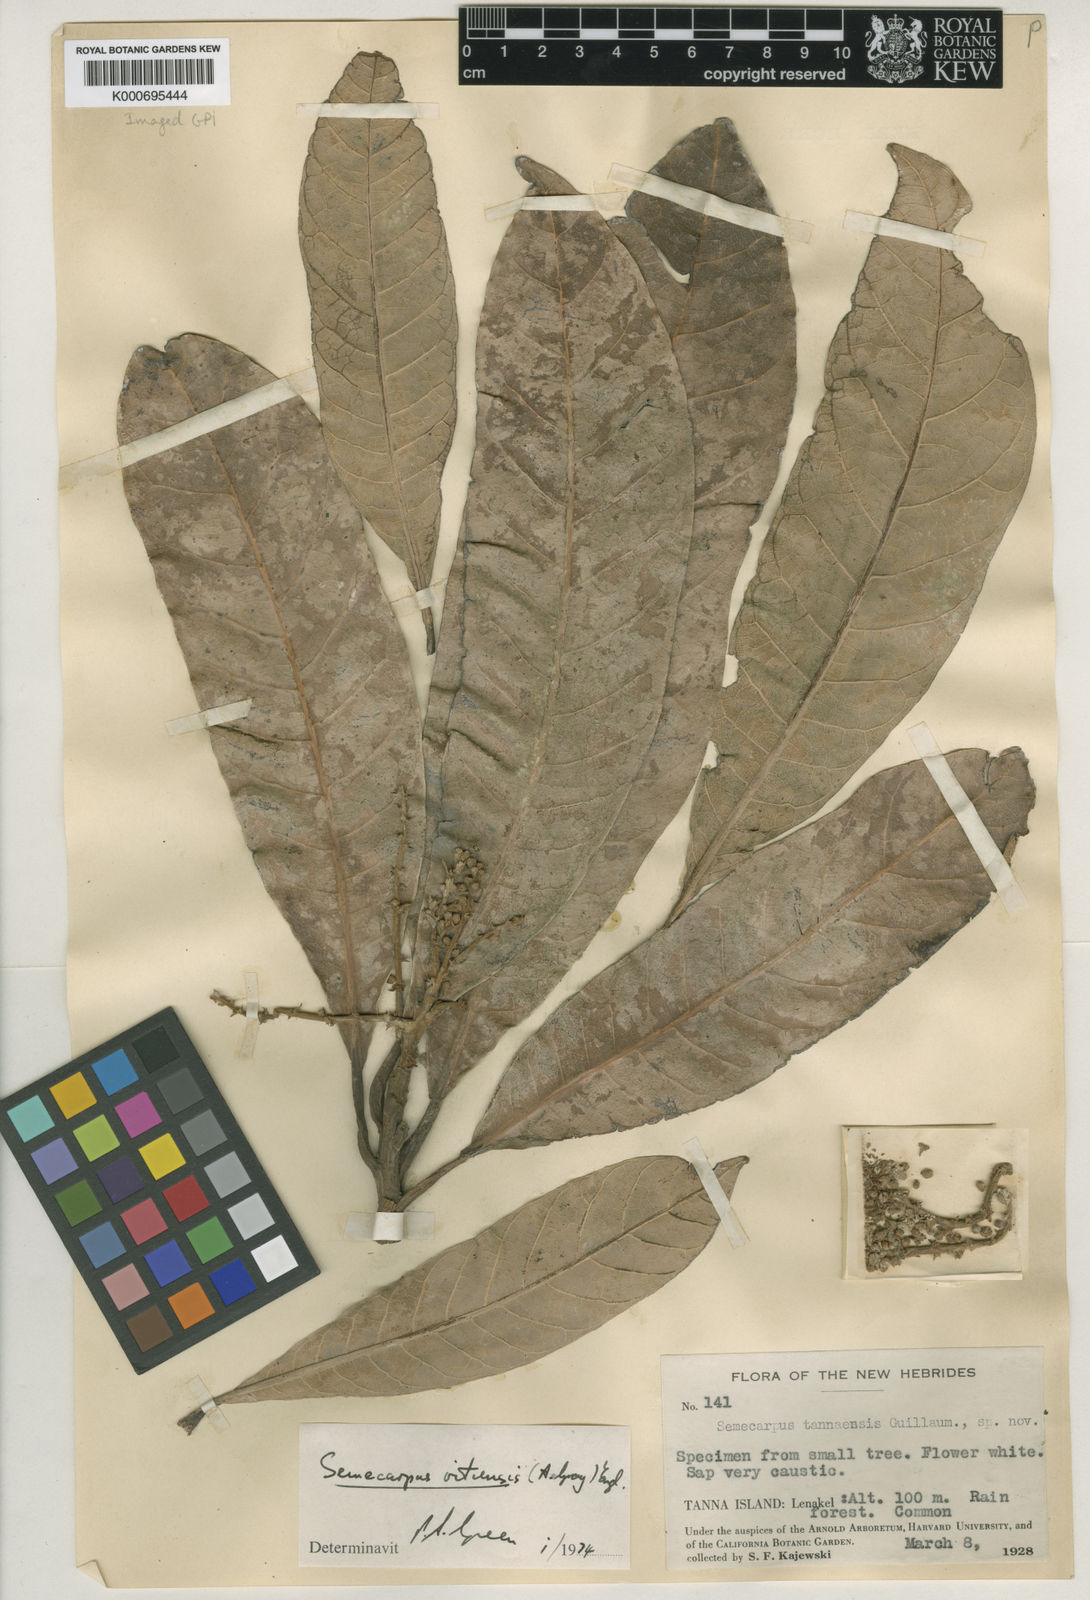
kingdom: Plantae
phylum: Tracheophyta
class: Magnoliopsida
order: Sapindales
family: Anacardiaceae
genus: Semecarpus
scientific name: Semecarpus vitiensis
